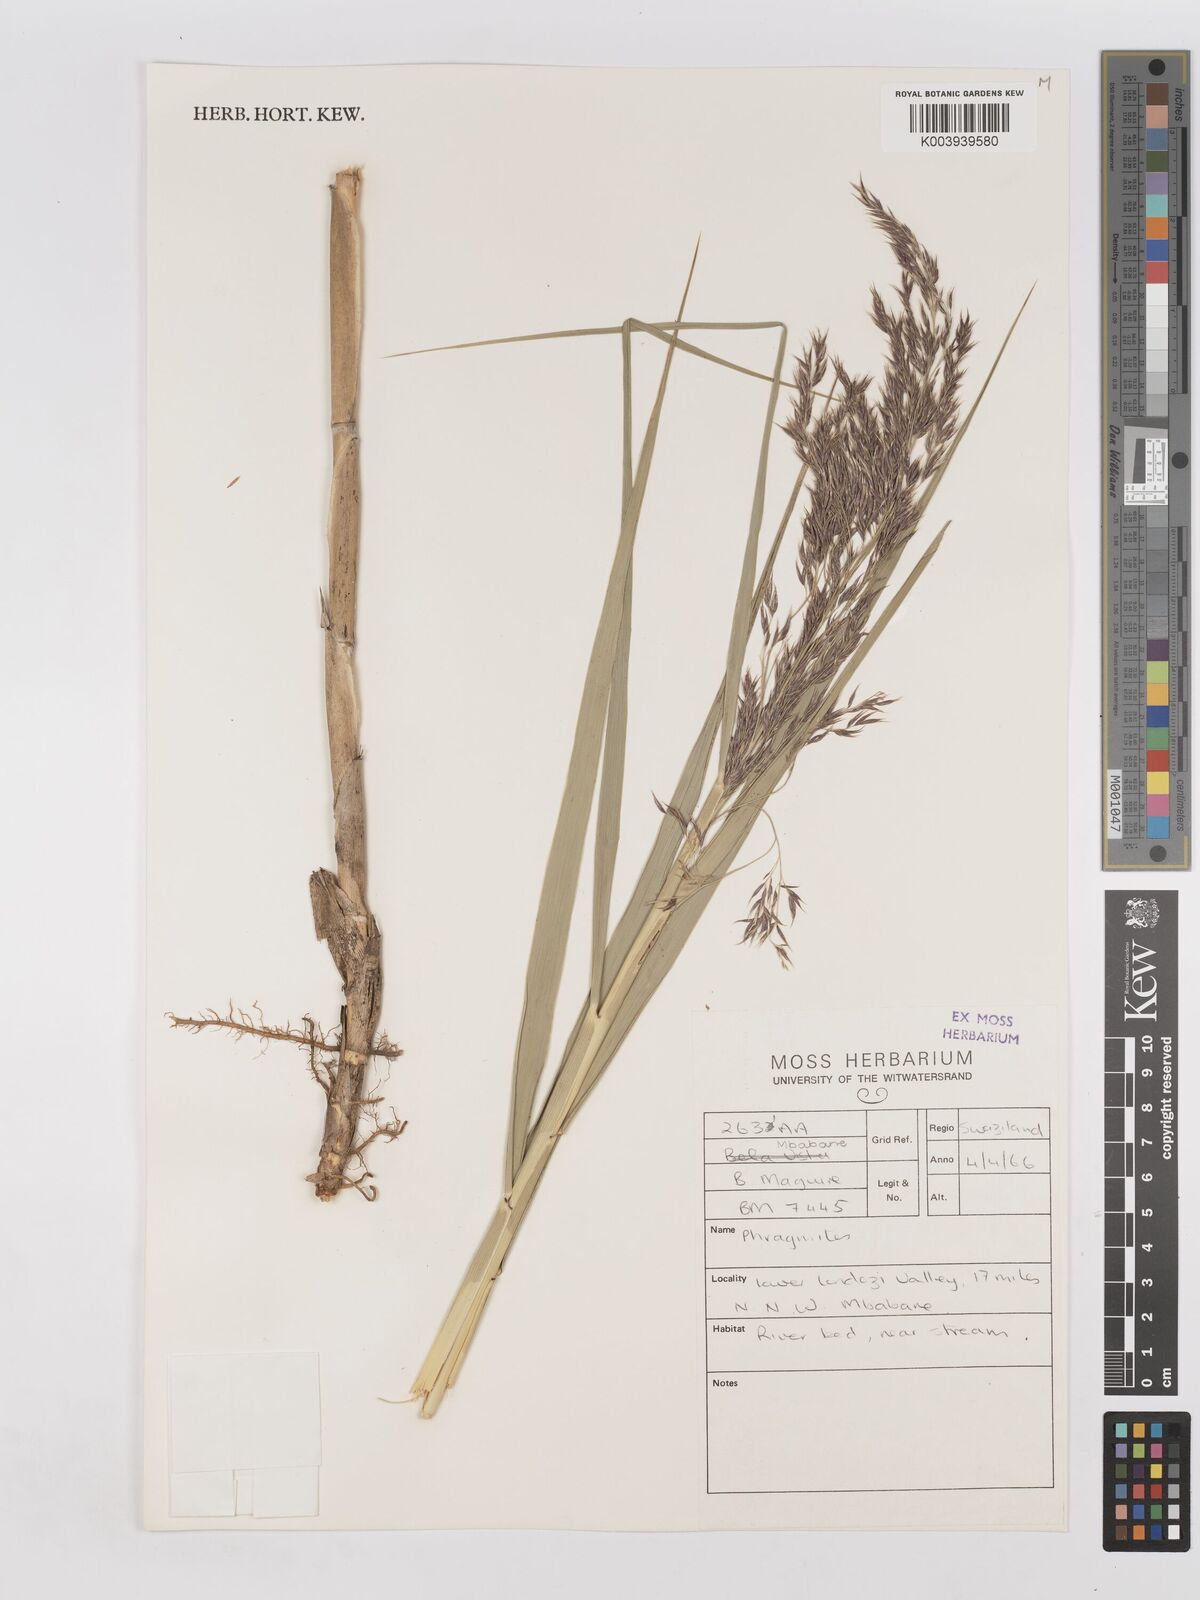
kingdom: Plantae
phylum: Tracheophyta
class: Liliopsida
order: Poales
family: Poaceae
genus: Phragmites
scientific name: Phragmites mauritianus
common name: Reed grass
